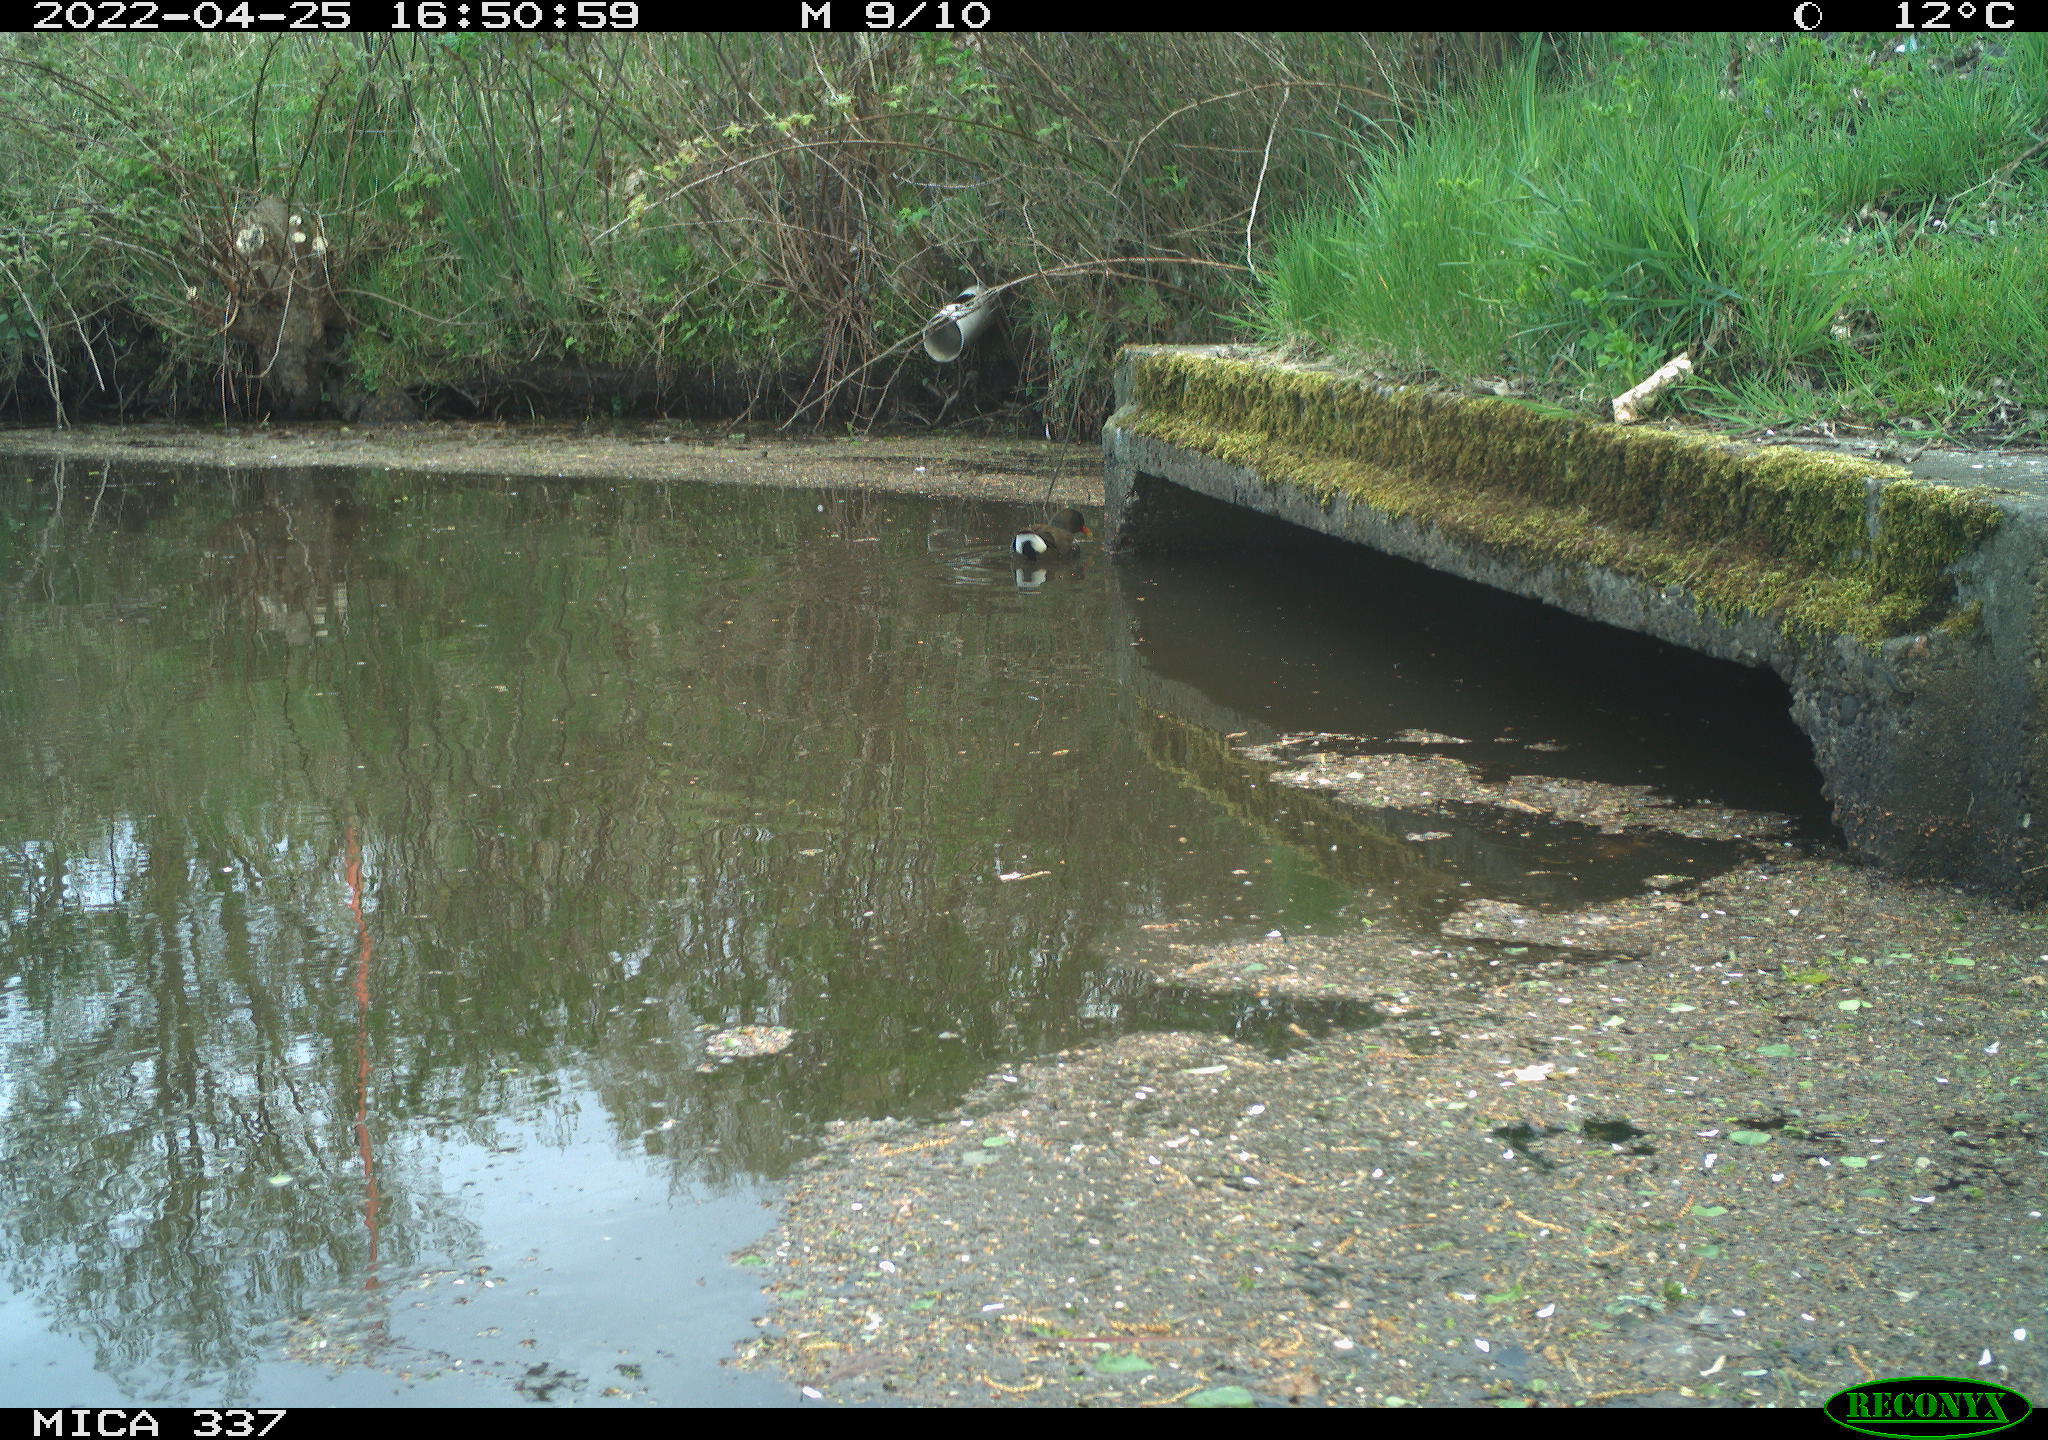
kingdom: Animalia
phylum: Chordata
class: Aves
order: Gruiformes
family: Rallidae
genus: Gallinula
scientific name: Gallinula chloropus
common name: Common moorhen
